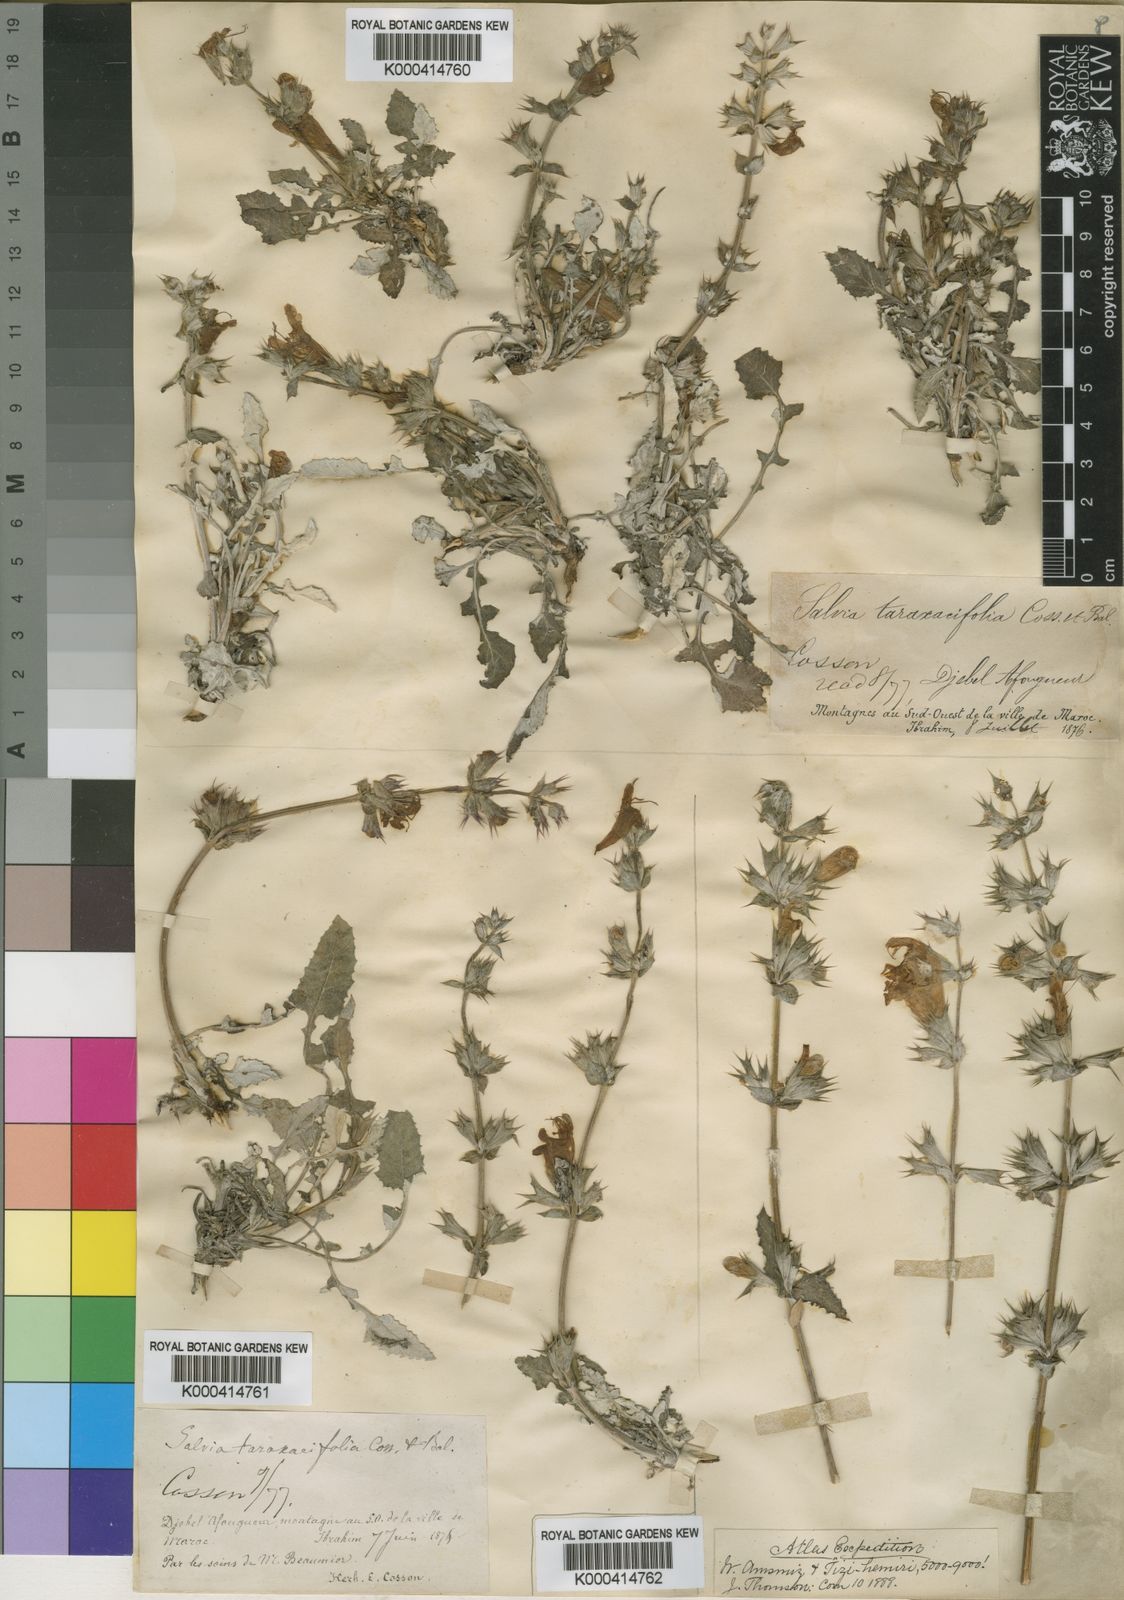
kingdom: Plantae
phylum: Tracheophyta
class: Magnoliopsida
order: Lamiales
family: Lamiaceae
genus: Salvia
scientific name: Salvia
